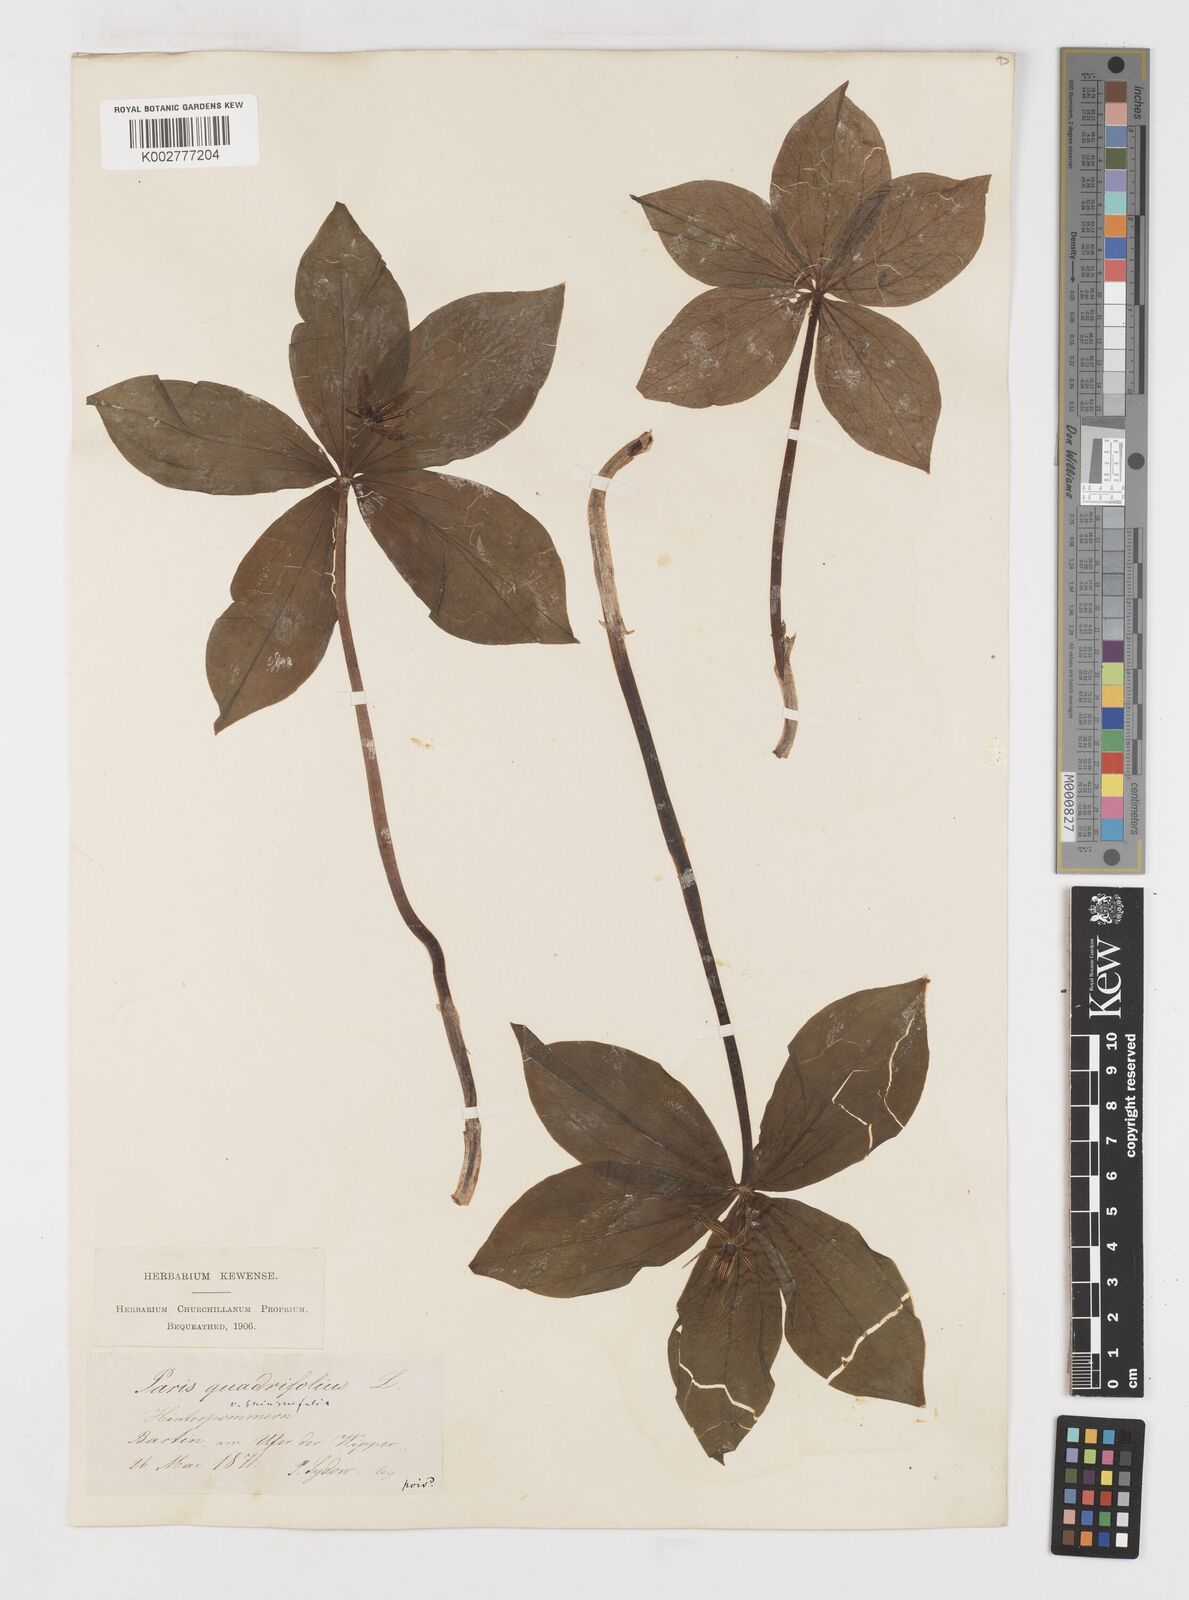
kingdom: Plantae
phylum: Tracheophyta
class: Liliopsida
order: Liliales
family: Melanthiaceae
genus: Paris
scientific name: Paris quadrifolia
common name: Herb-paris
